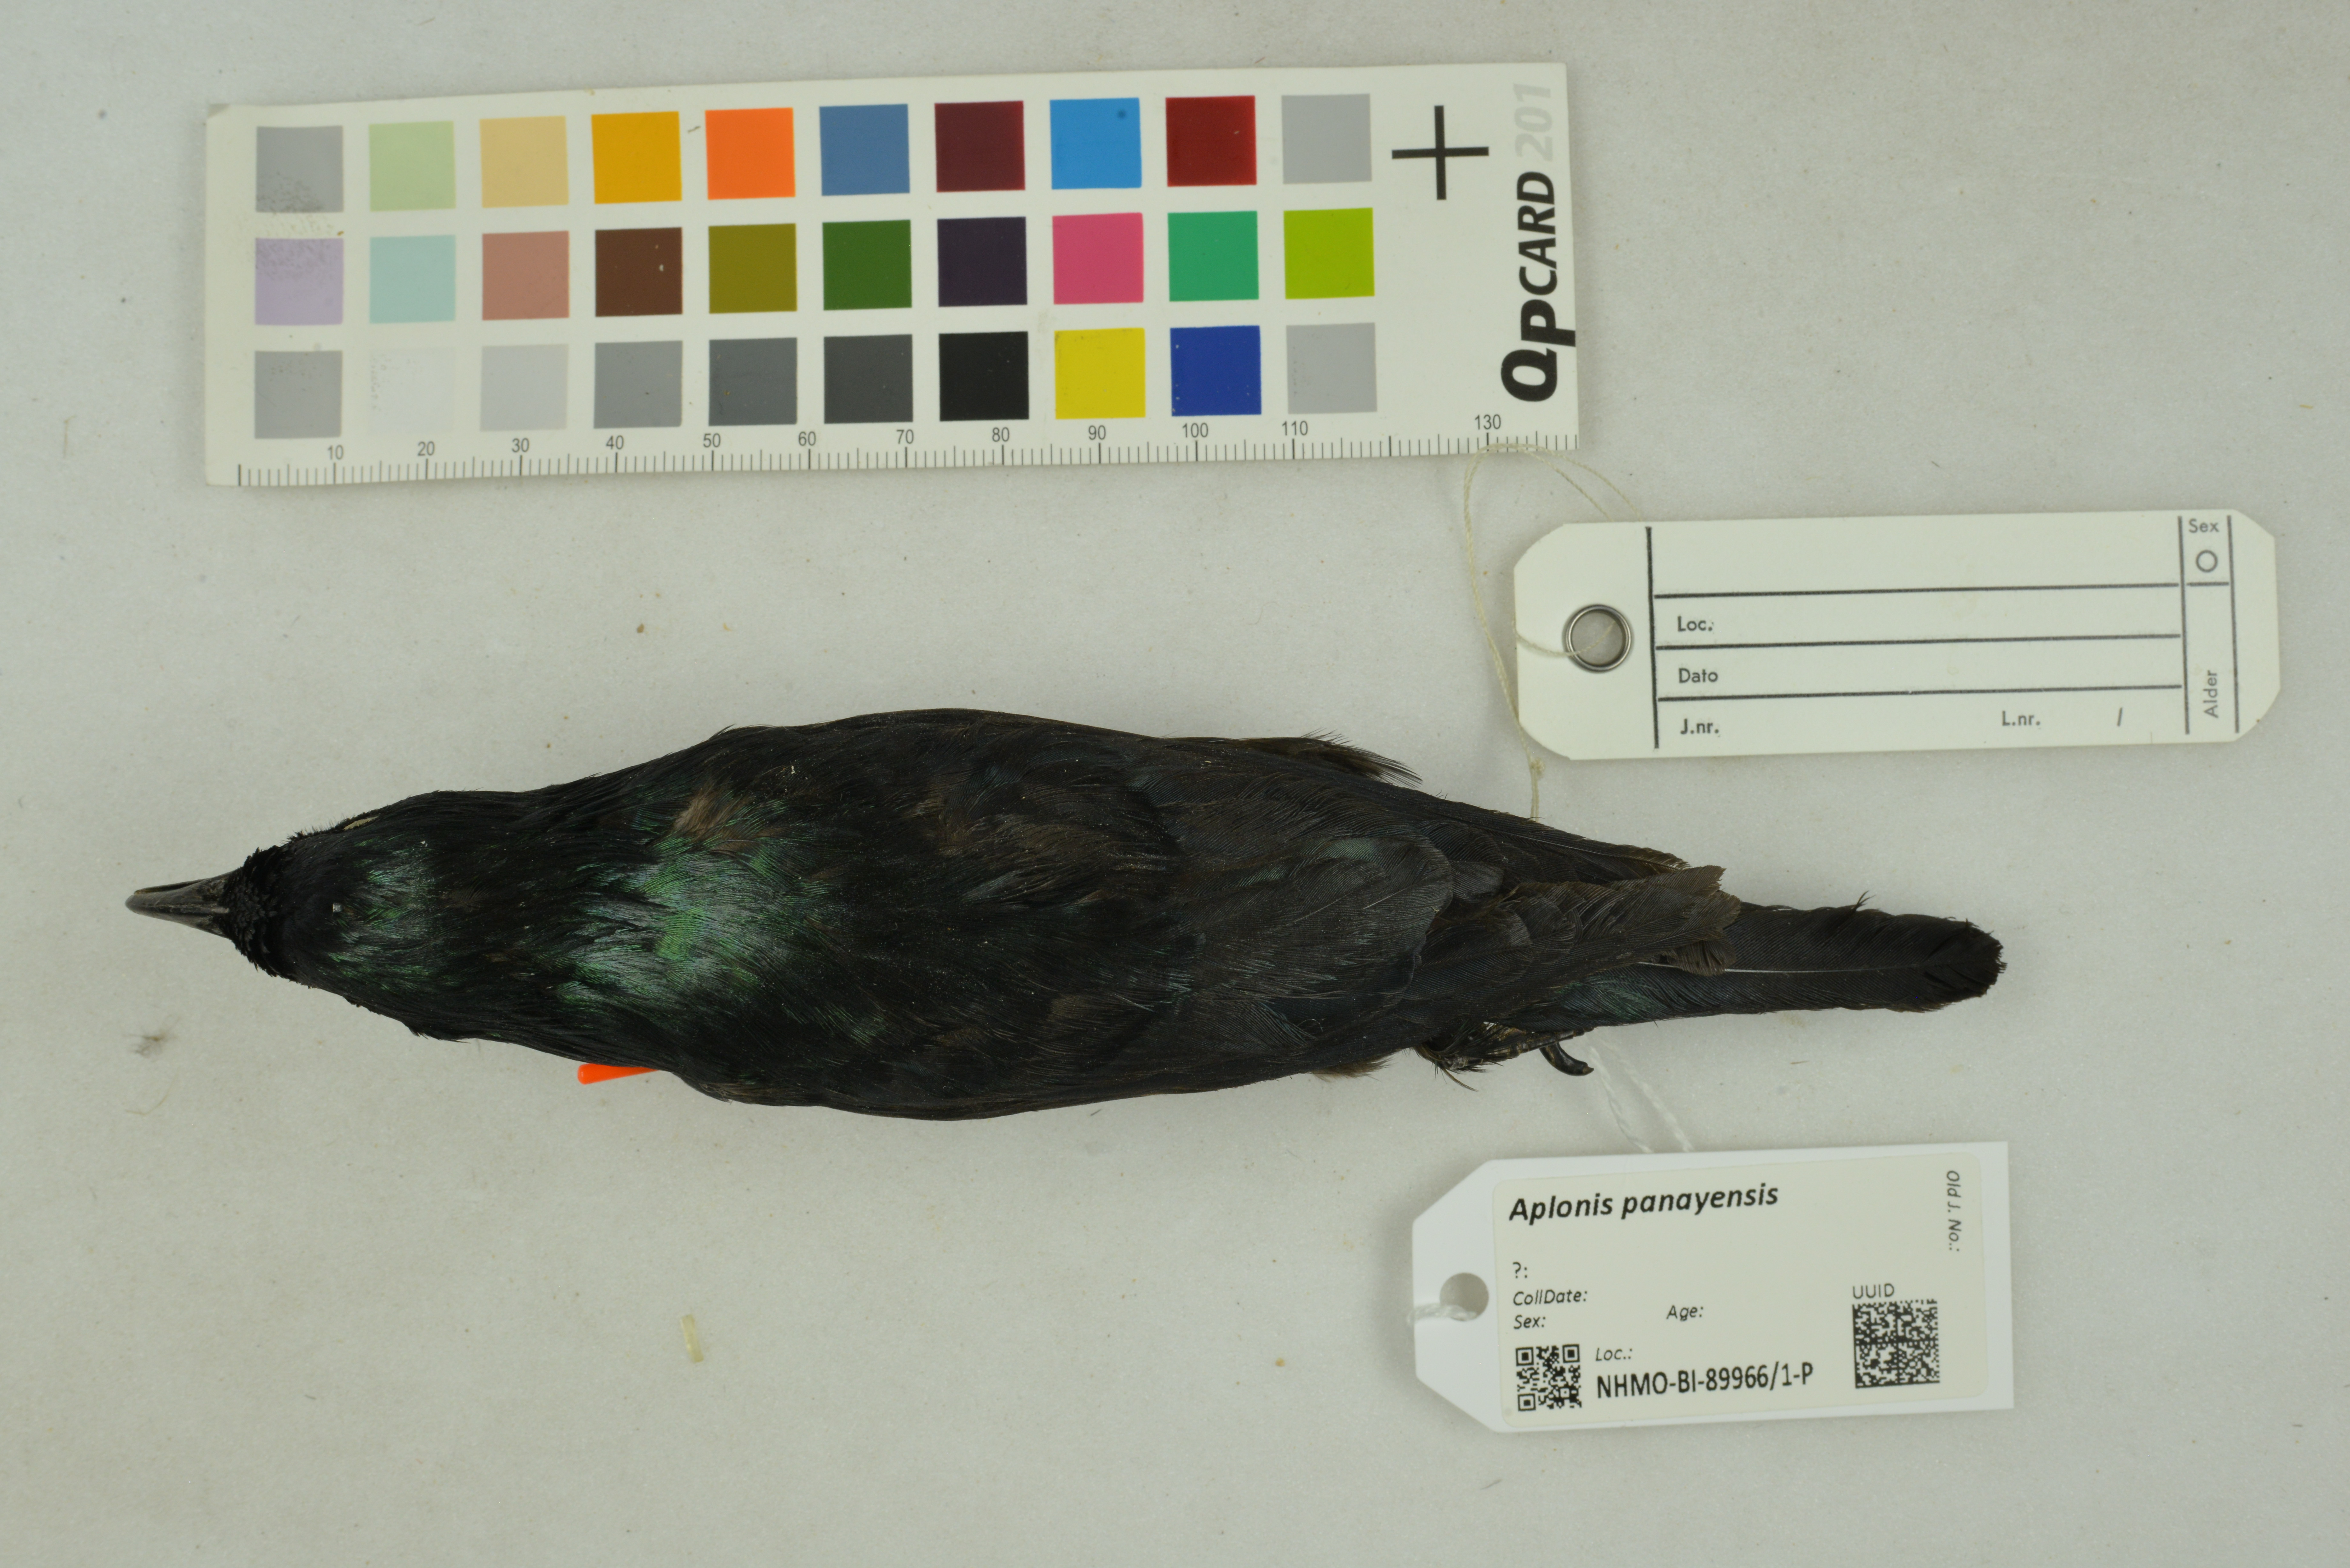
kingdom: Animalia
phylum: Chordata
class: Aves
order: Passeriformes
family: Sturnidae
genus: Aplonis
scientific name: Aplonis panayensis
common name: Asian glossy starling
